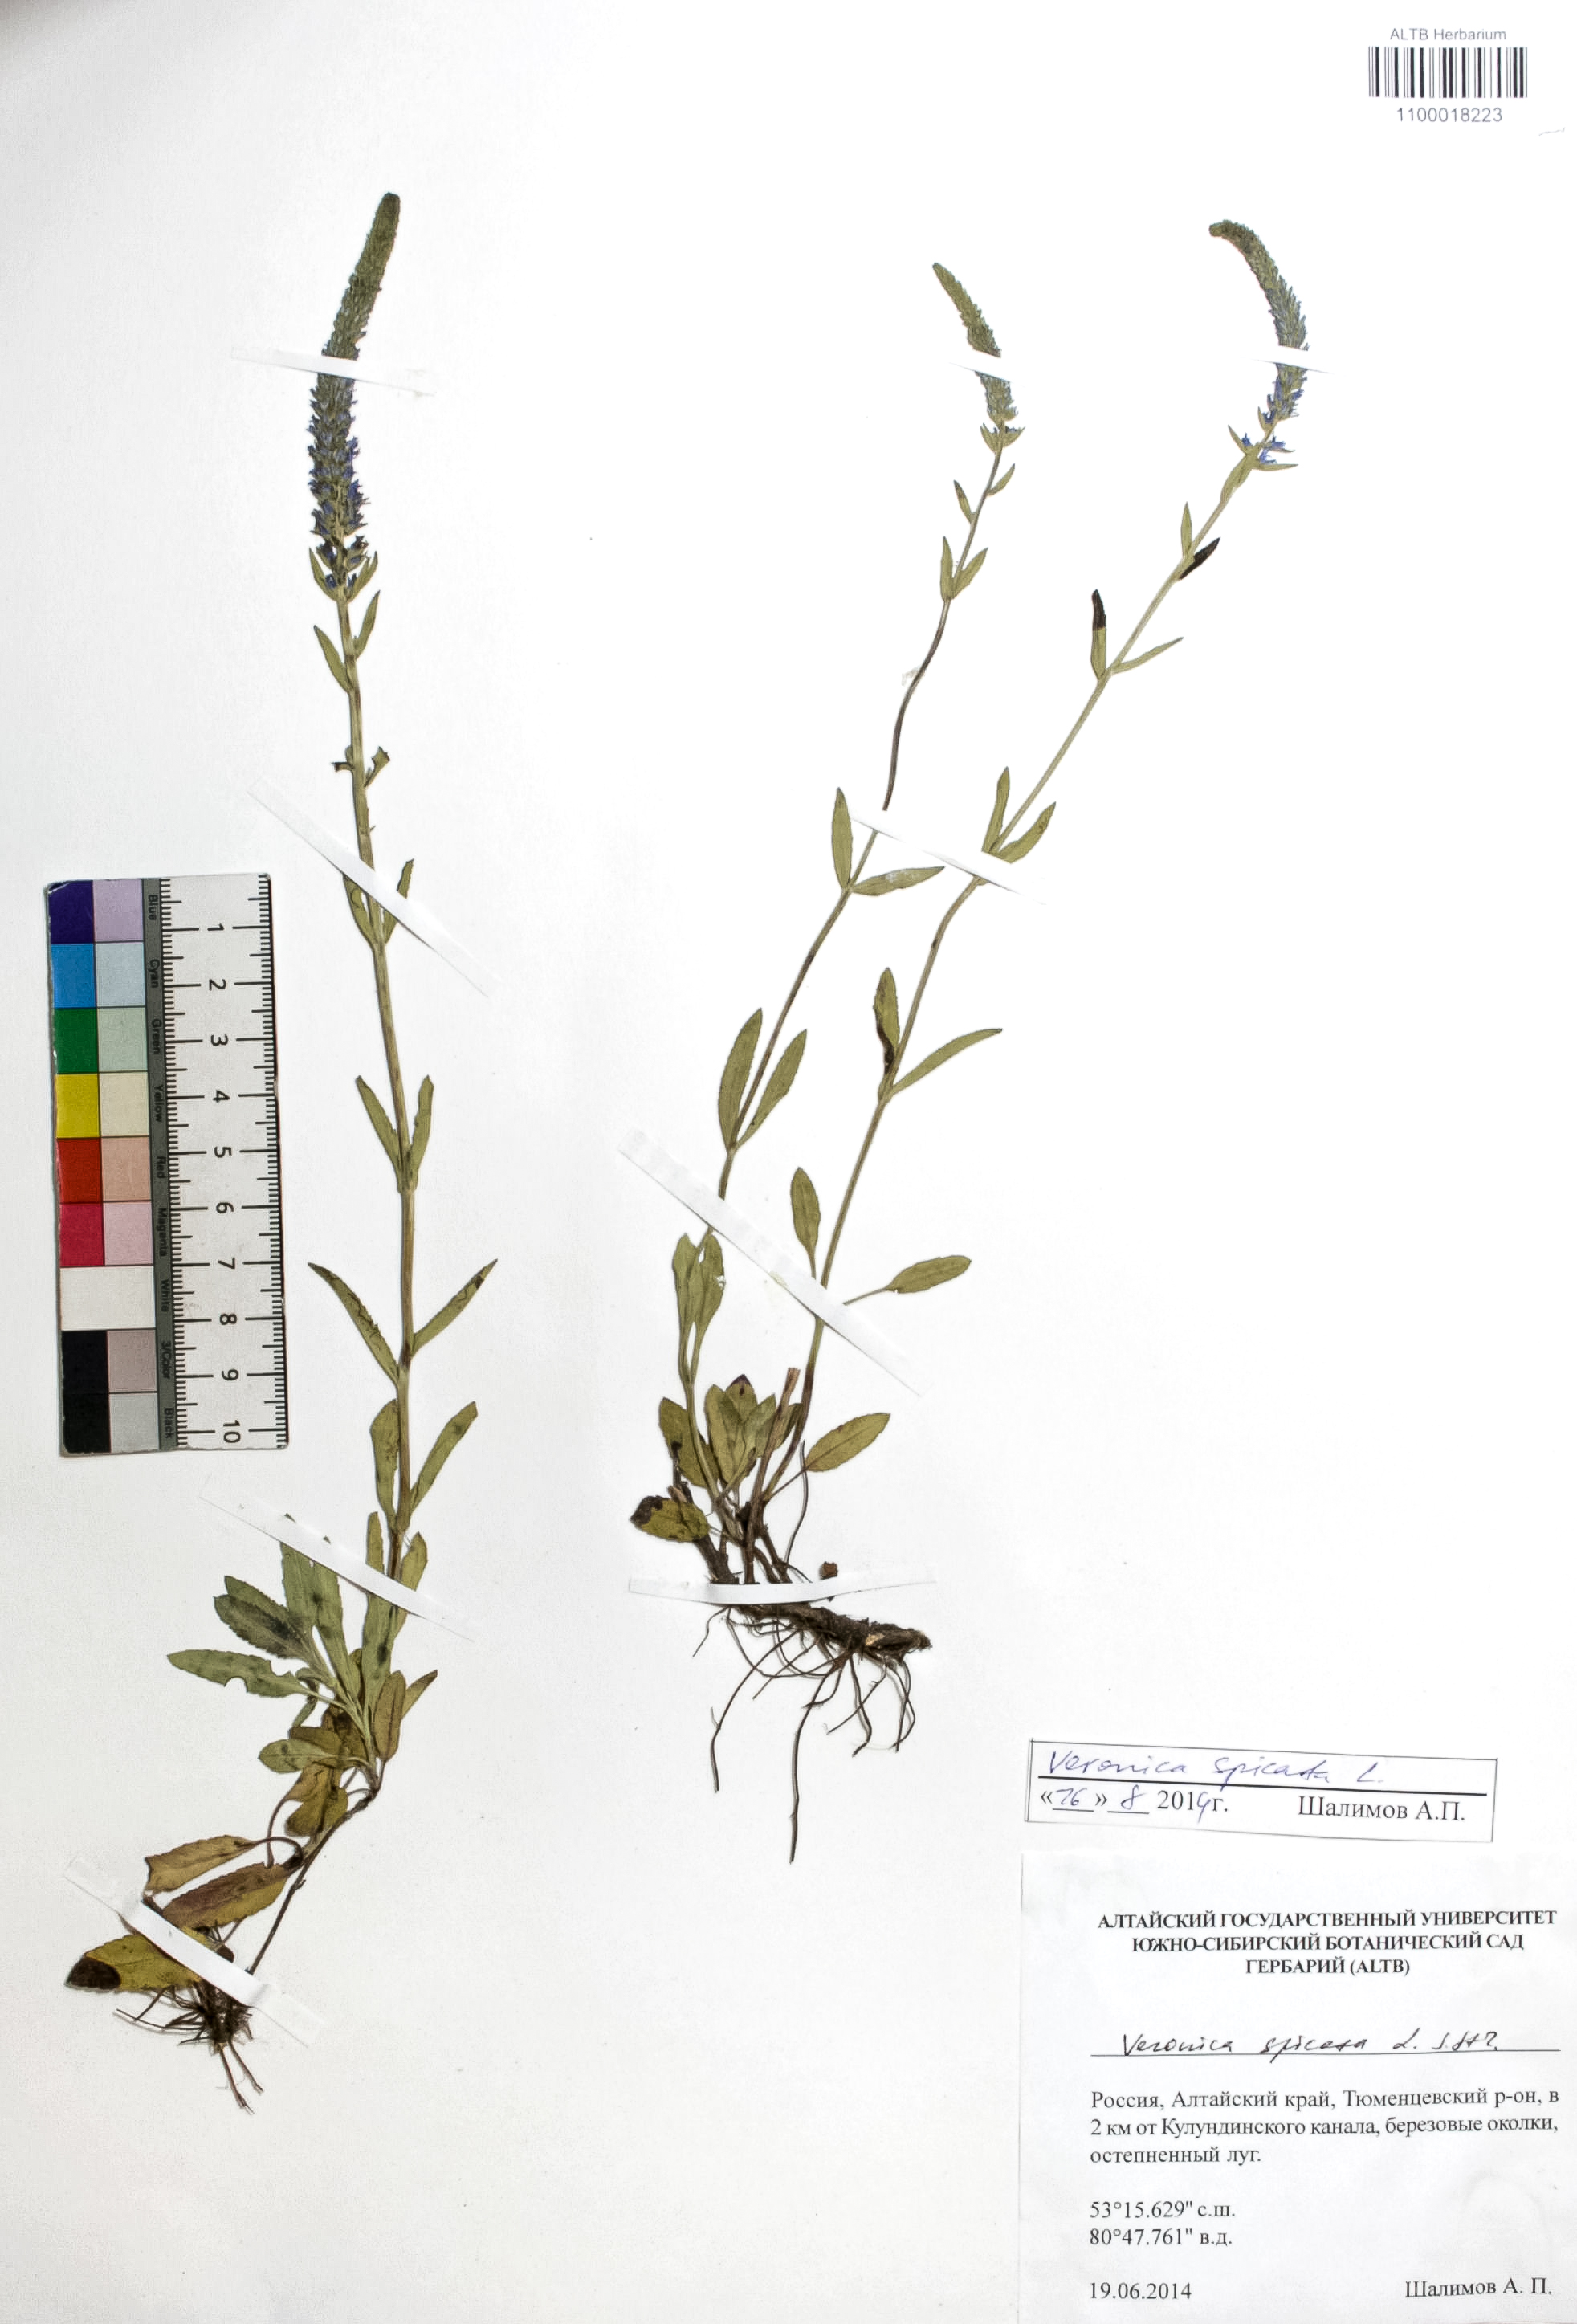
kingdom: Plantae
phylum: Tracheophyta
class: Magnoliopsida
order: Lamiales
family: Plantaginaceae
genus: Veronica
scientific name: Veronica spicata
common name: Spiked speedwell
